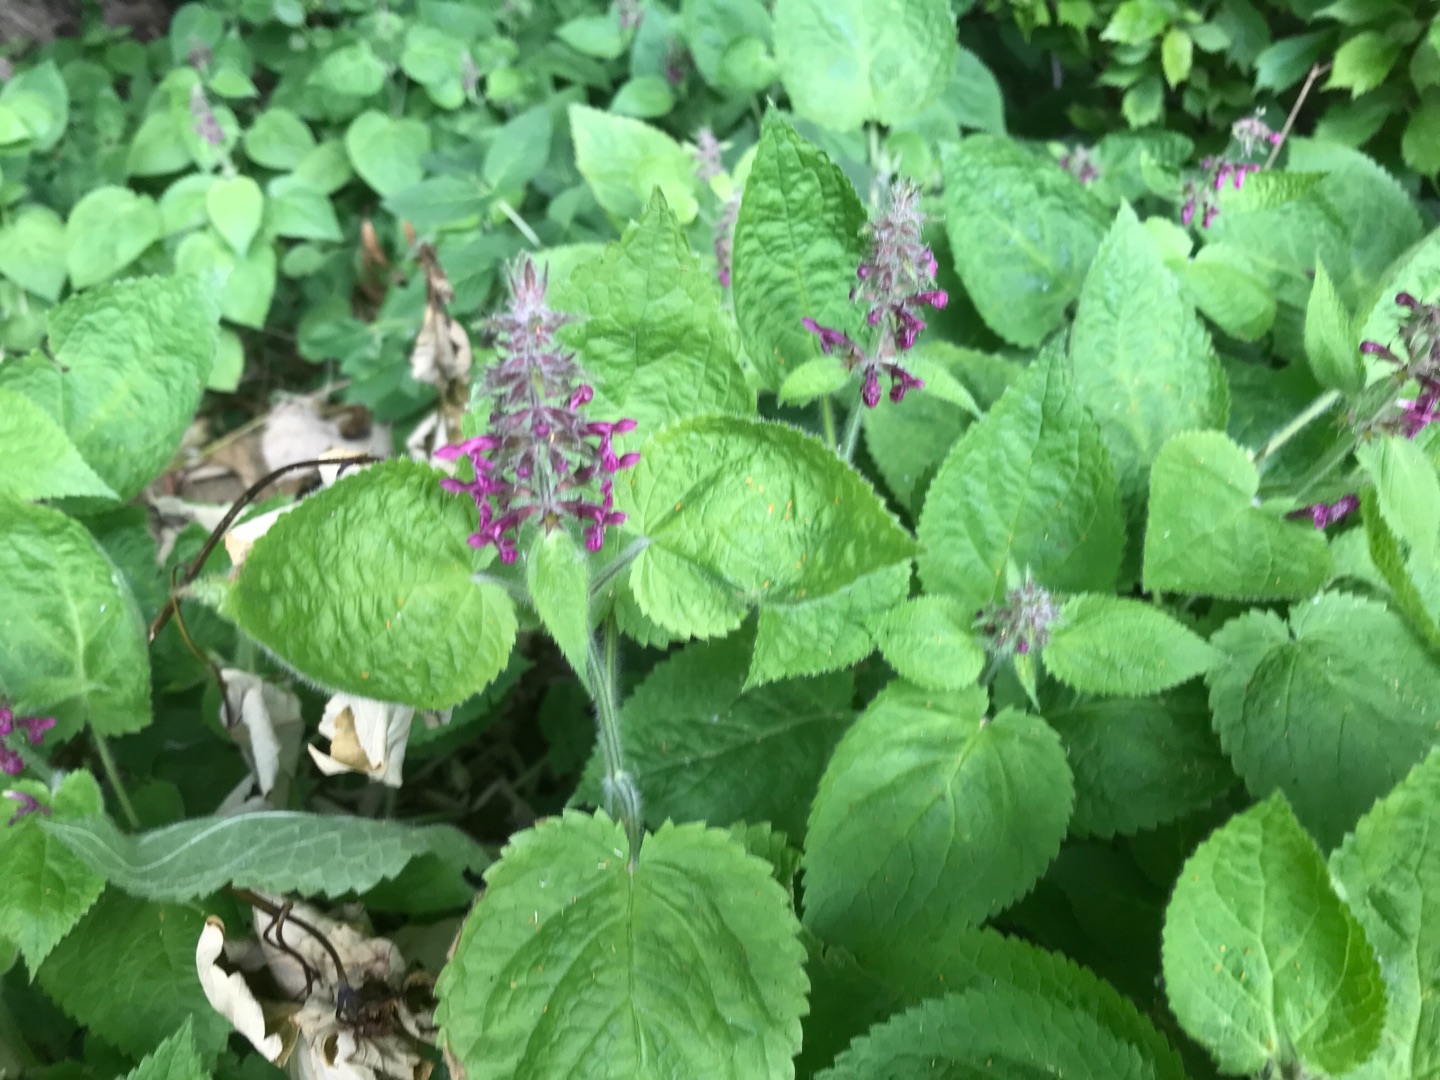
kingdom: Plantae
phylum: Tracheophyta
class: Magnoliopsida
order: Lamiales
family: Lamiaceae
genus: Stachys
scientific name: Stachys sylvatica
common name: Skov-galtetand
